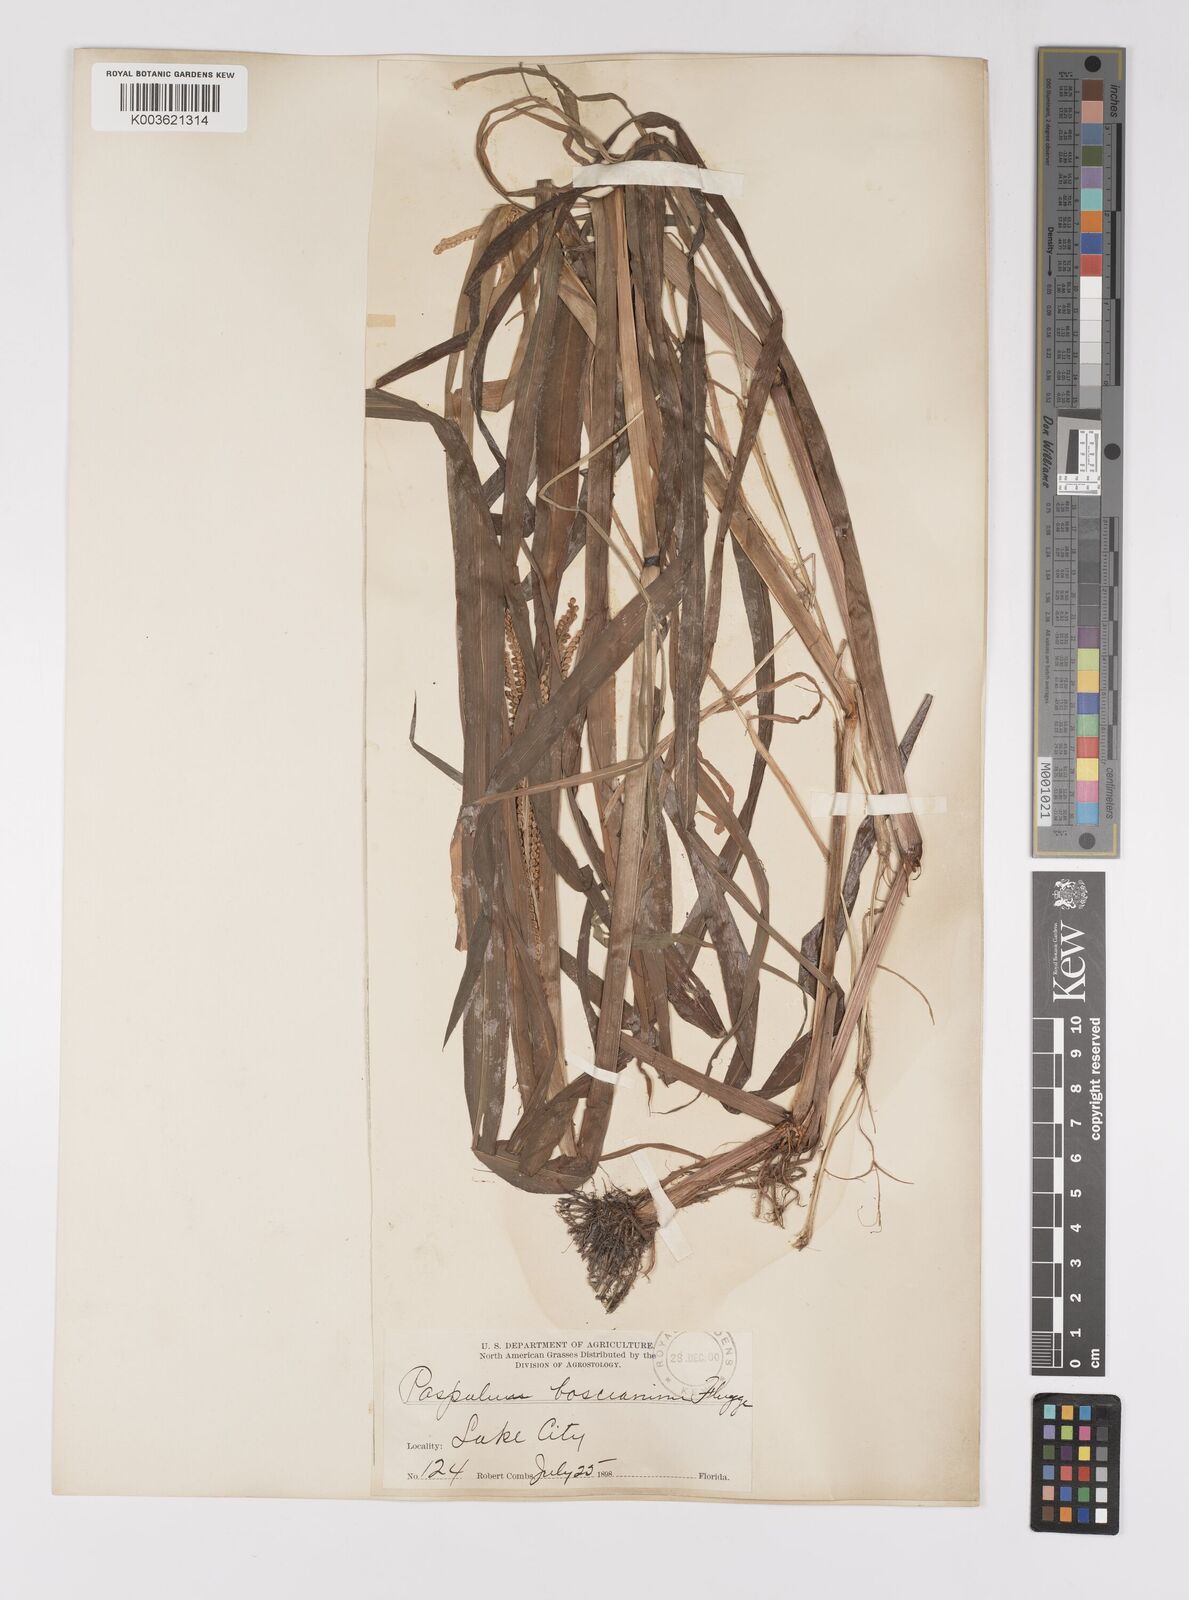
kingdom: Plantae
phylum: Tracheophyta
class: Liliopsida
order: Poales
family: Poaceae
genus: Paspalum
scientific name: Paspalum scrobiculatum
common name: Kodo millet
